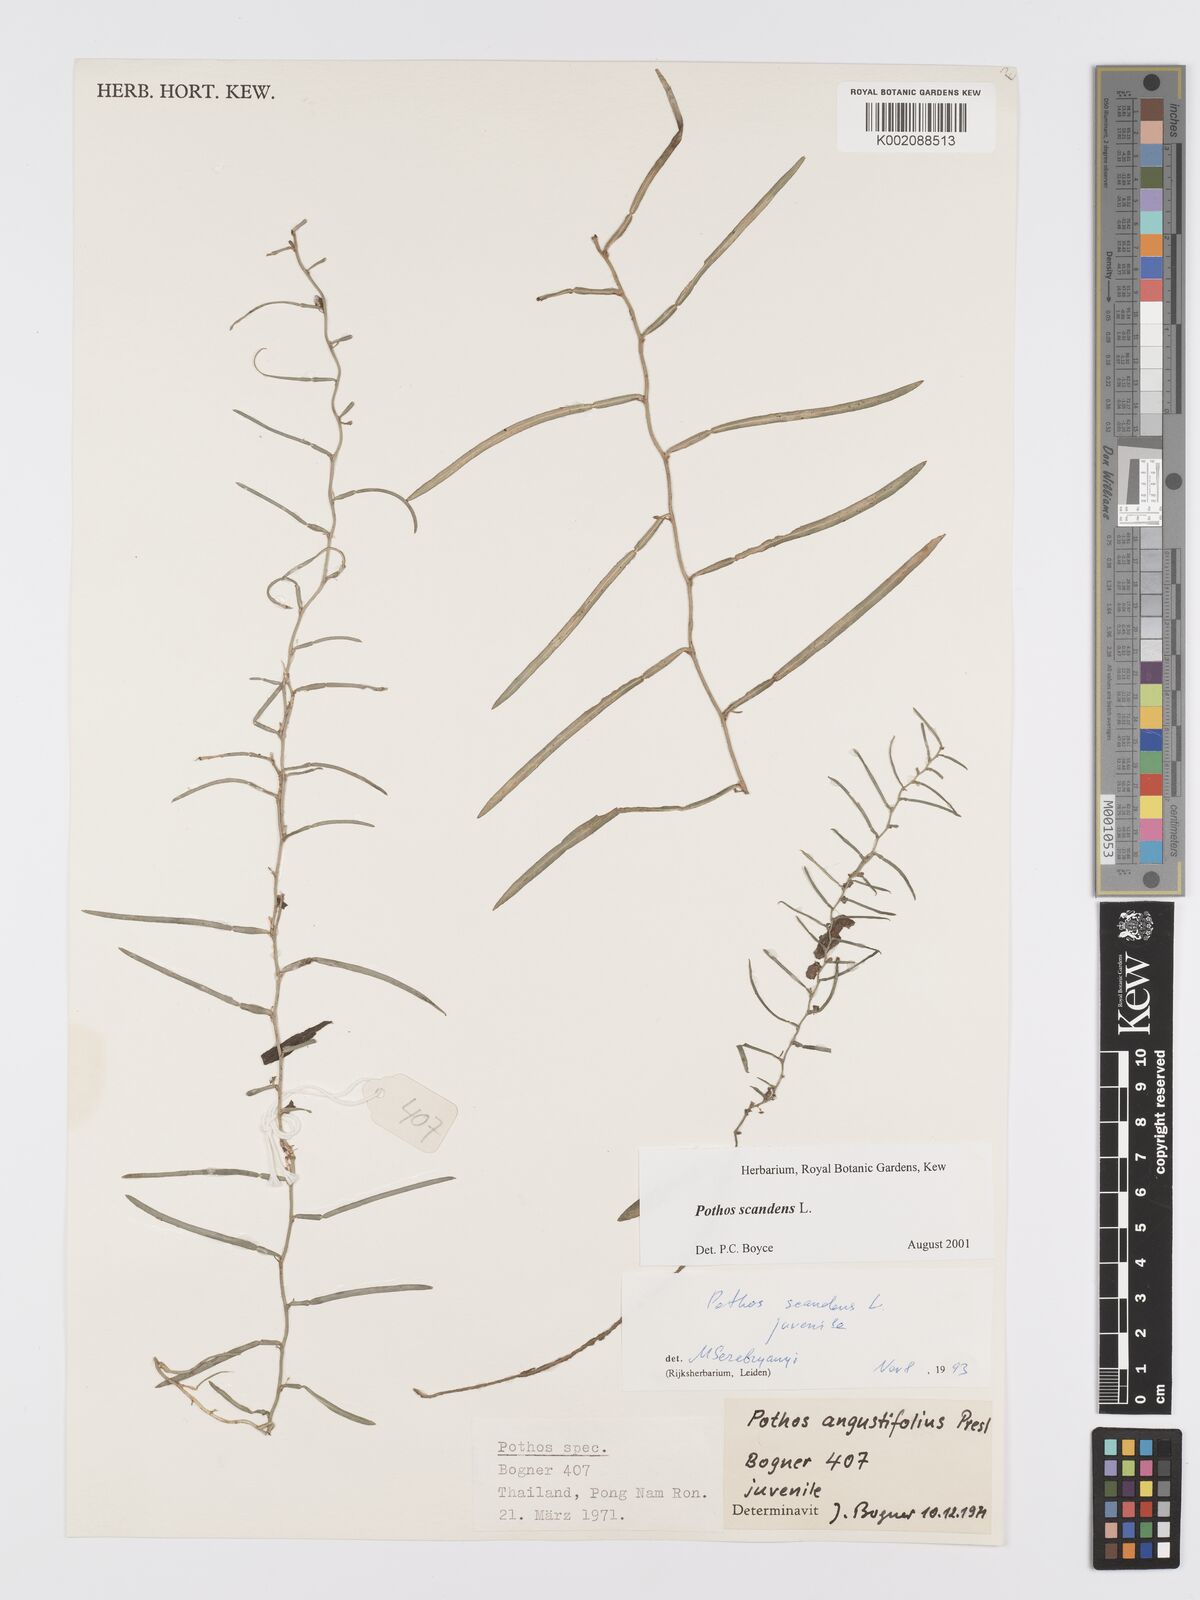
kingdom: Plantae
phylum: Tracheophyta
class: Liliopsida
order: Alismatales
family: Araceae
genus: Pothos
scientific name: Pothos scandens
